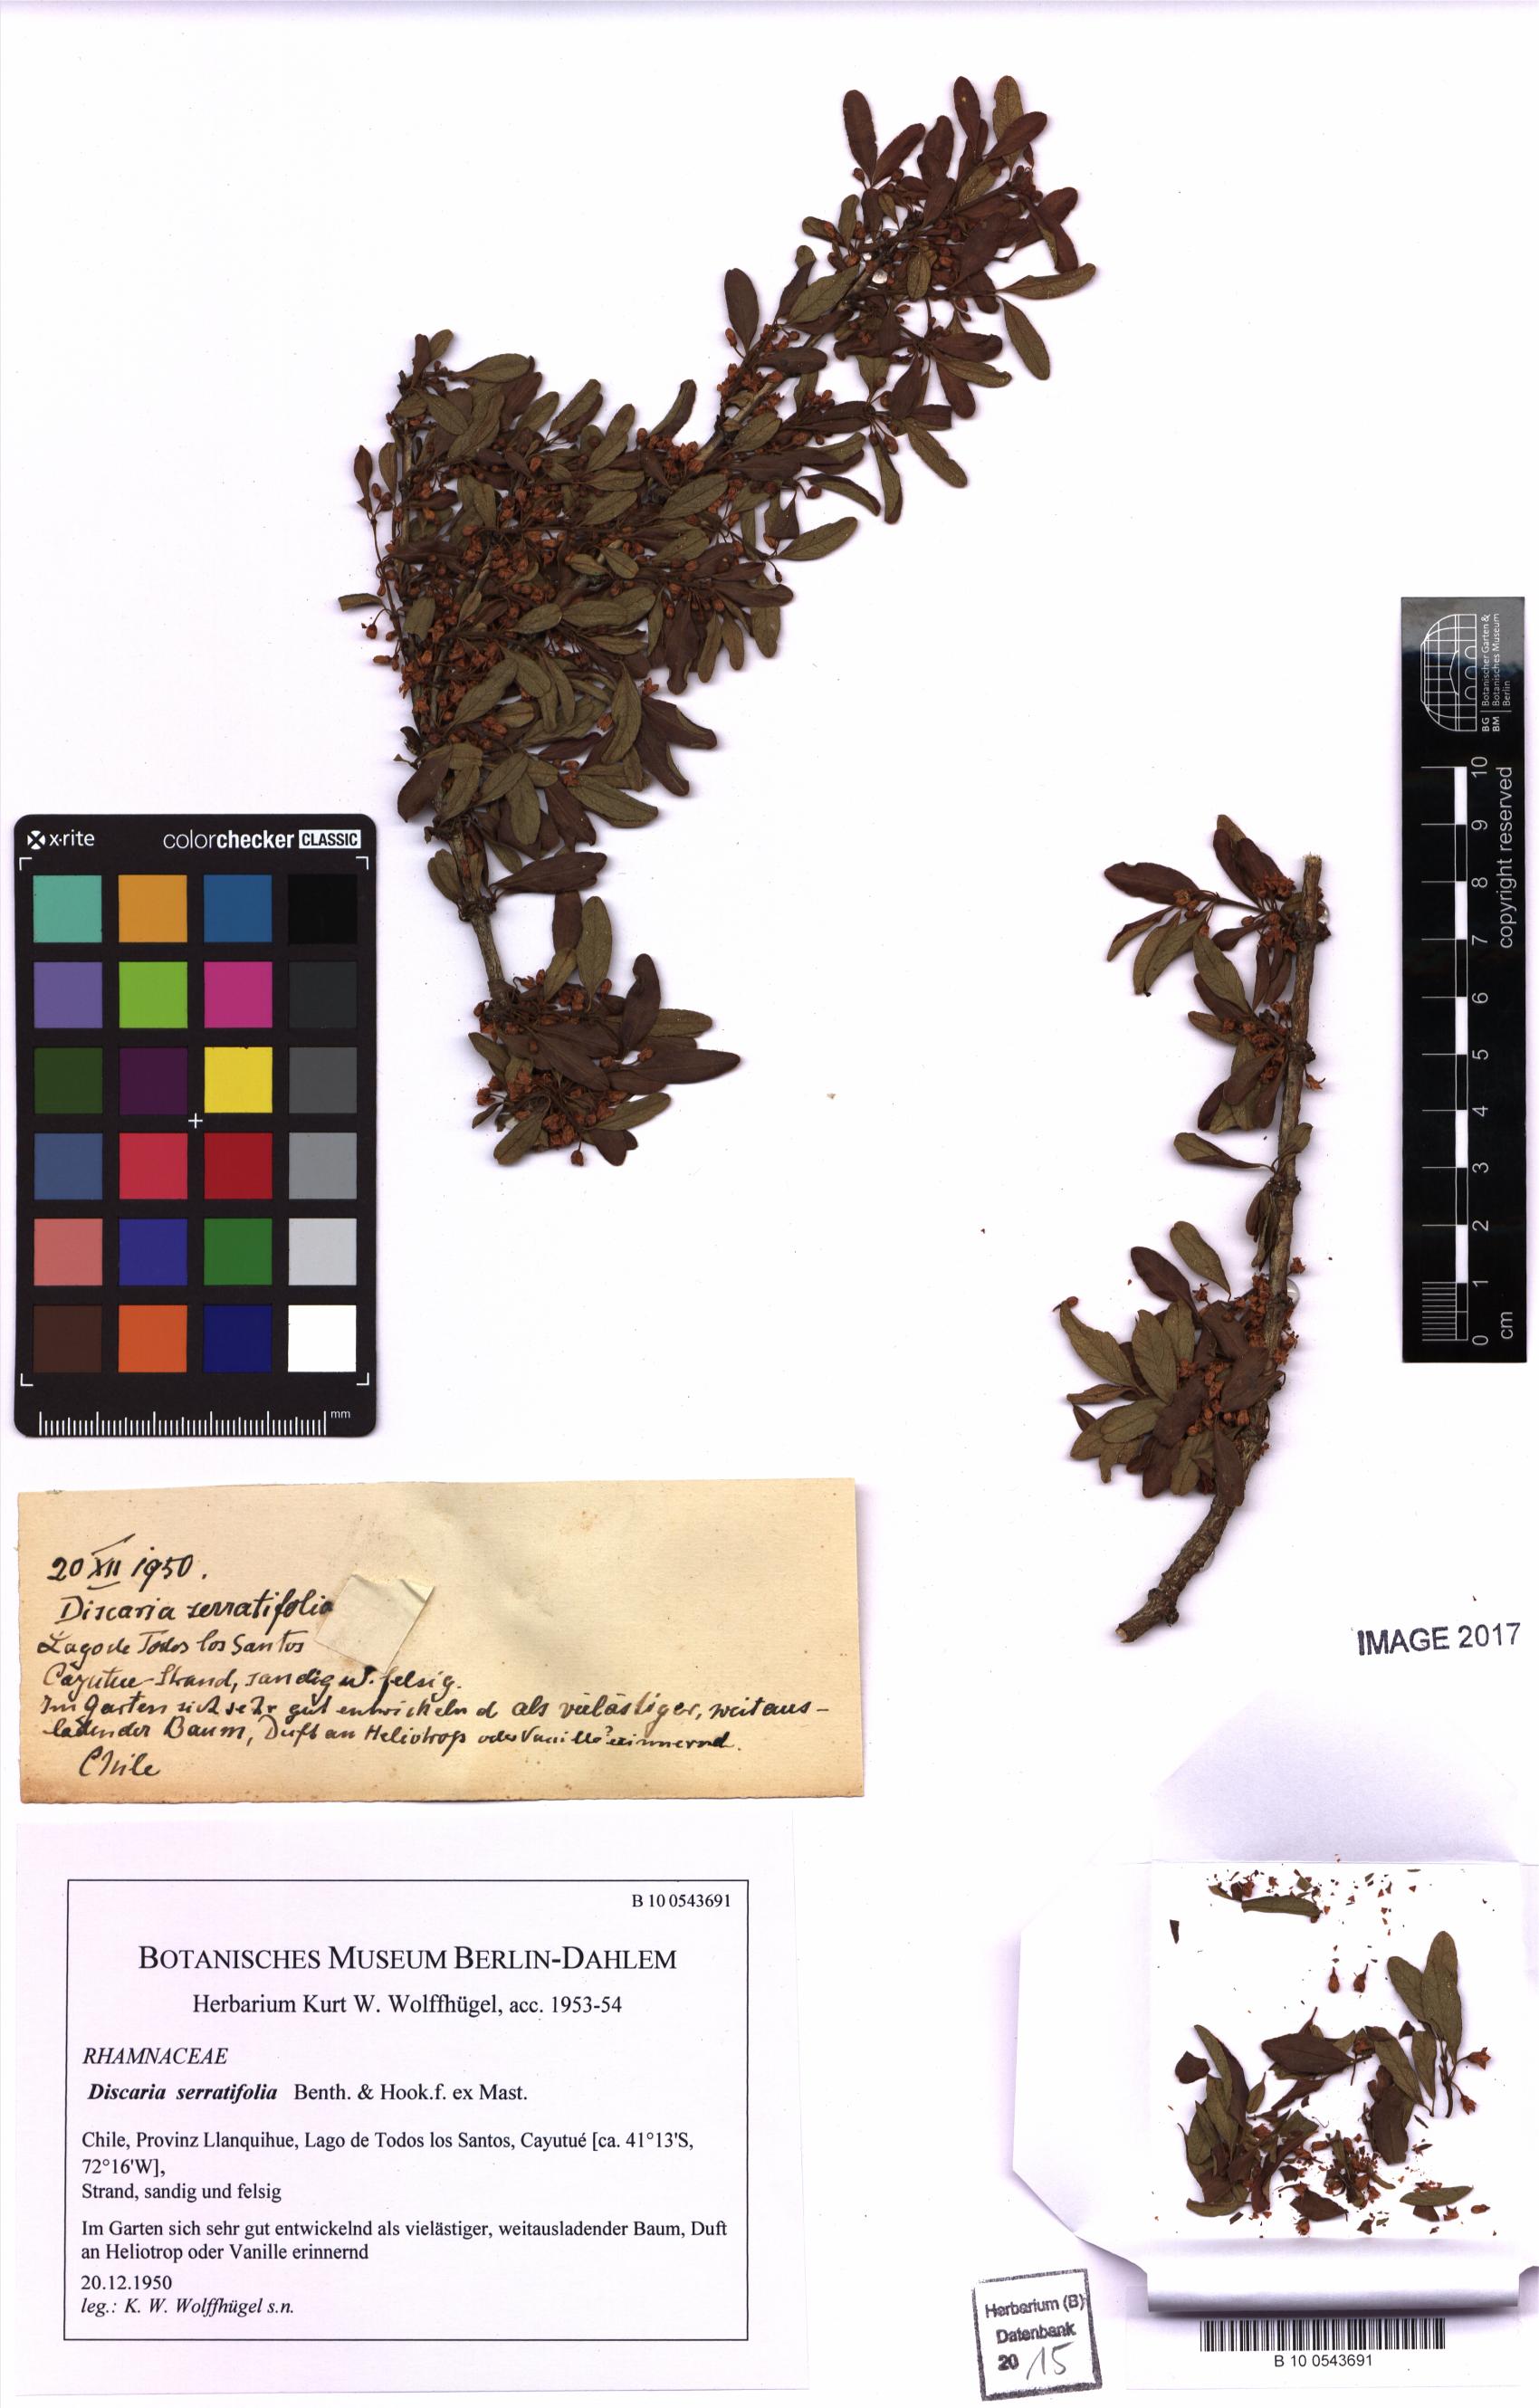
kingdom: Plantae
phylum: Tracheophyta
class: Magnoliopsida
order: Rosales
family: Rhamnaceae
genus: Discaria
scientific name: Discaria serratifolia
